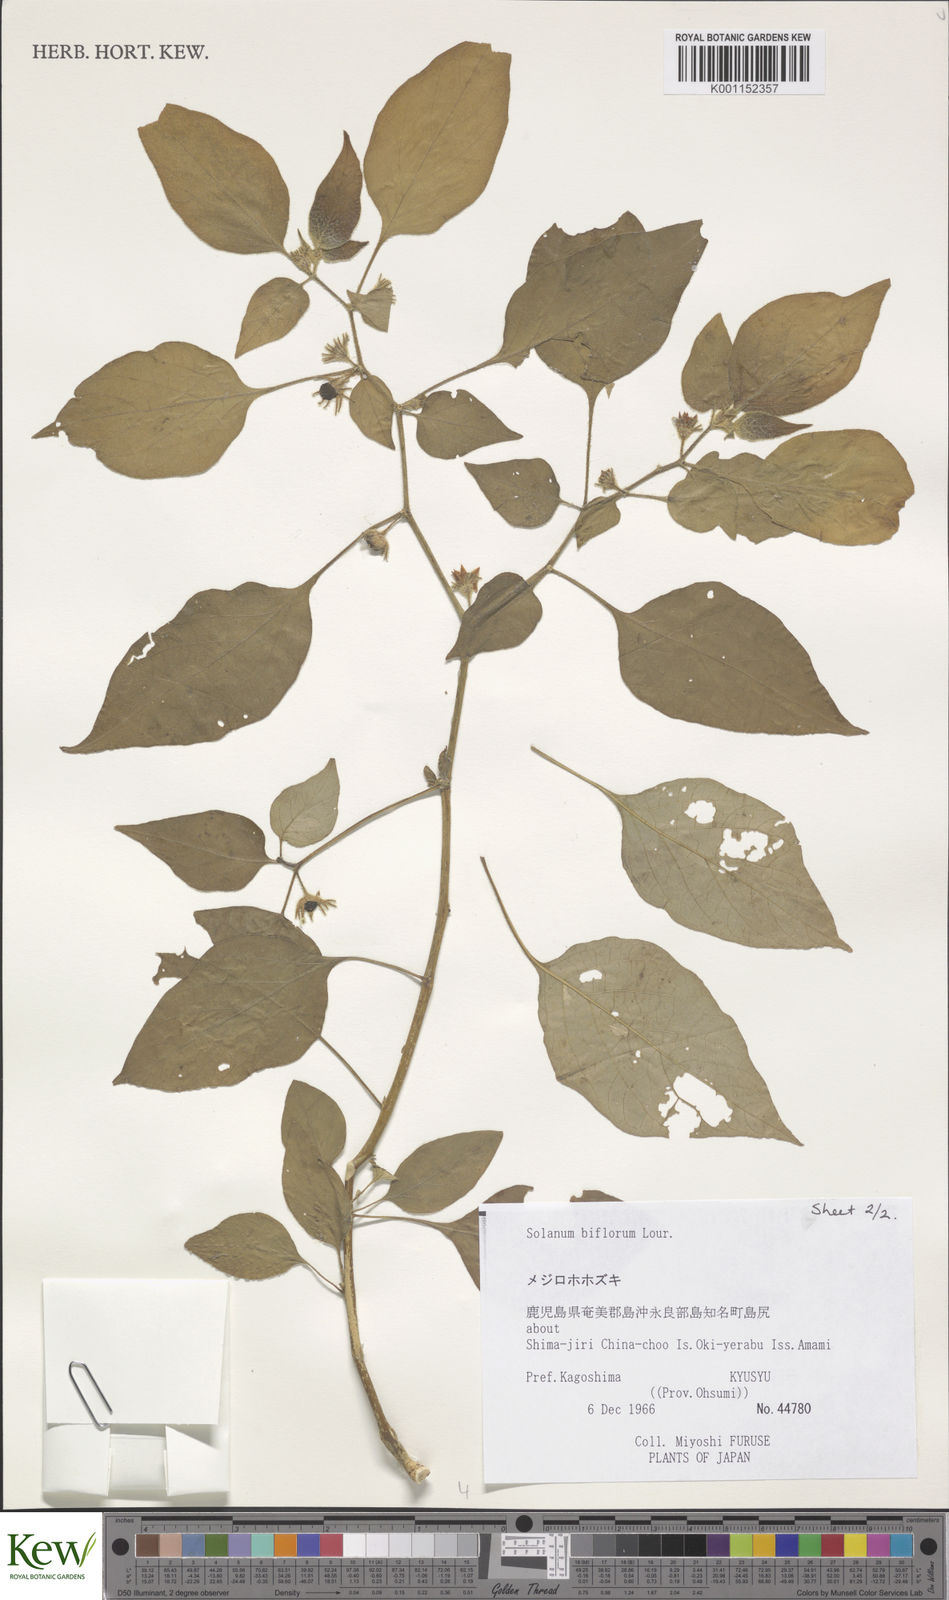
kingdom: Plantae
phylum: Tracheophyta
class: Magnoliopsida
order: Solanales
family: Solanaceae
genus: Lycianthes
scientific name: Lycianthes biflora
